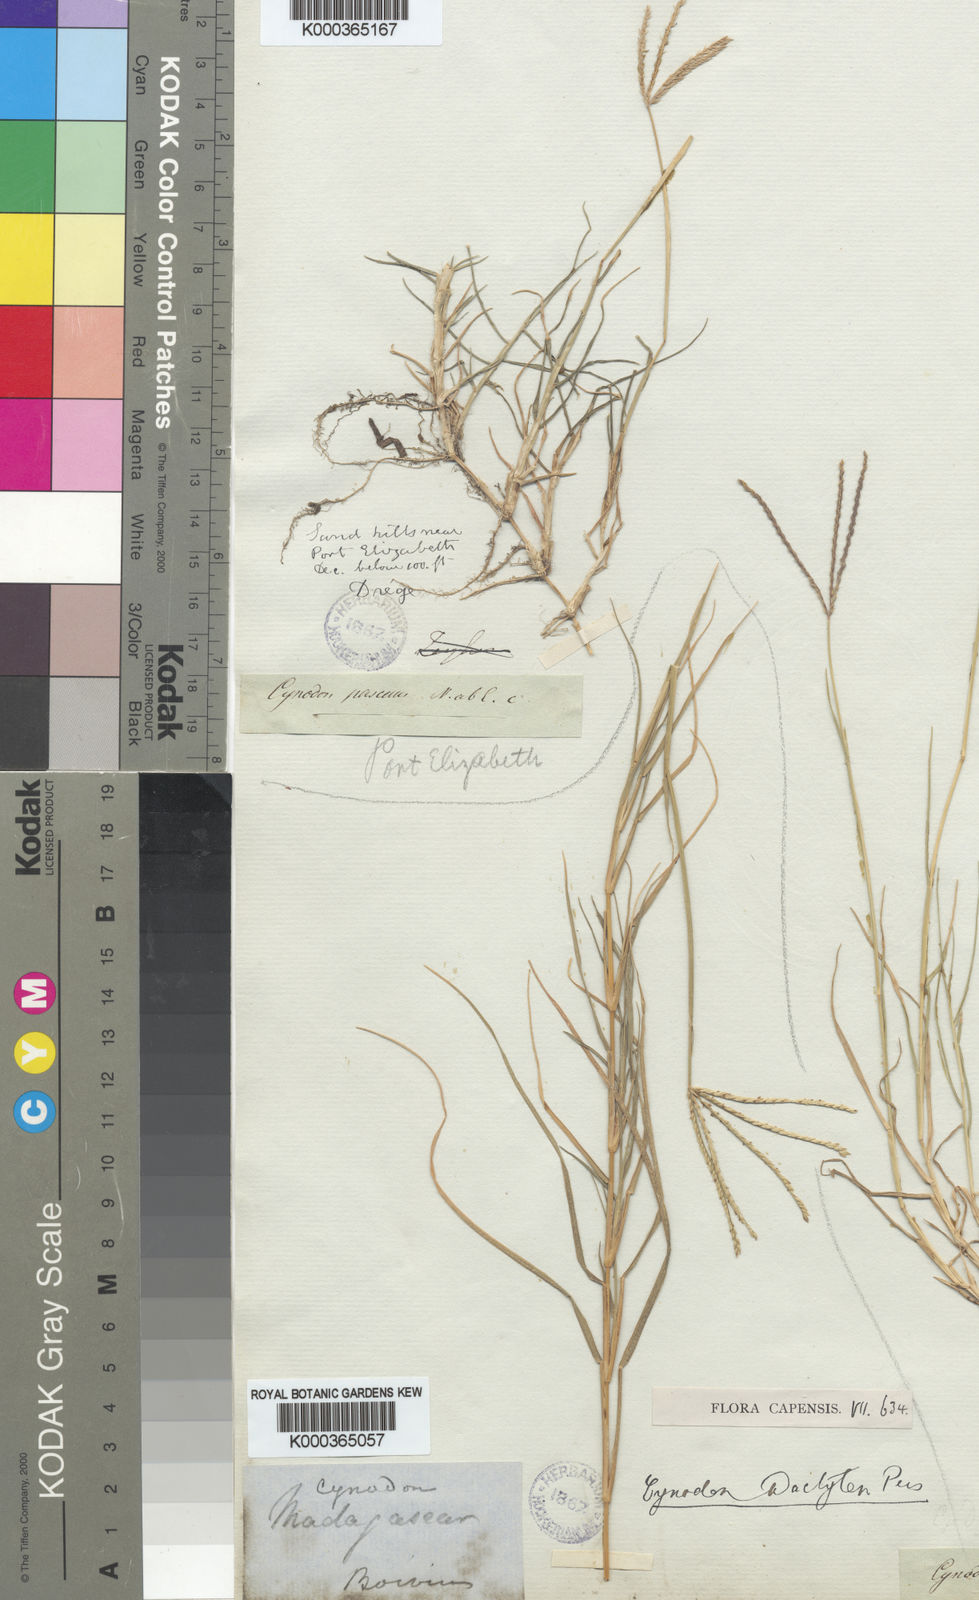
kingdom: Plantae
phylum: Tracheophyta
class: Liliopsida
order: Poales
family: Poaceae
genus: Cynodon
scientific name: Cynodon dactylon
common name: Bermuda grass
